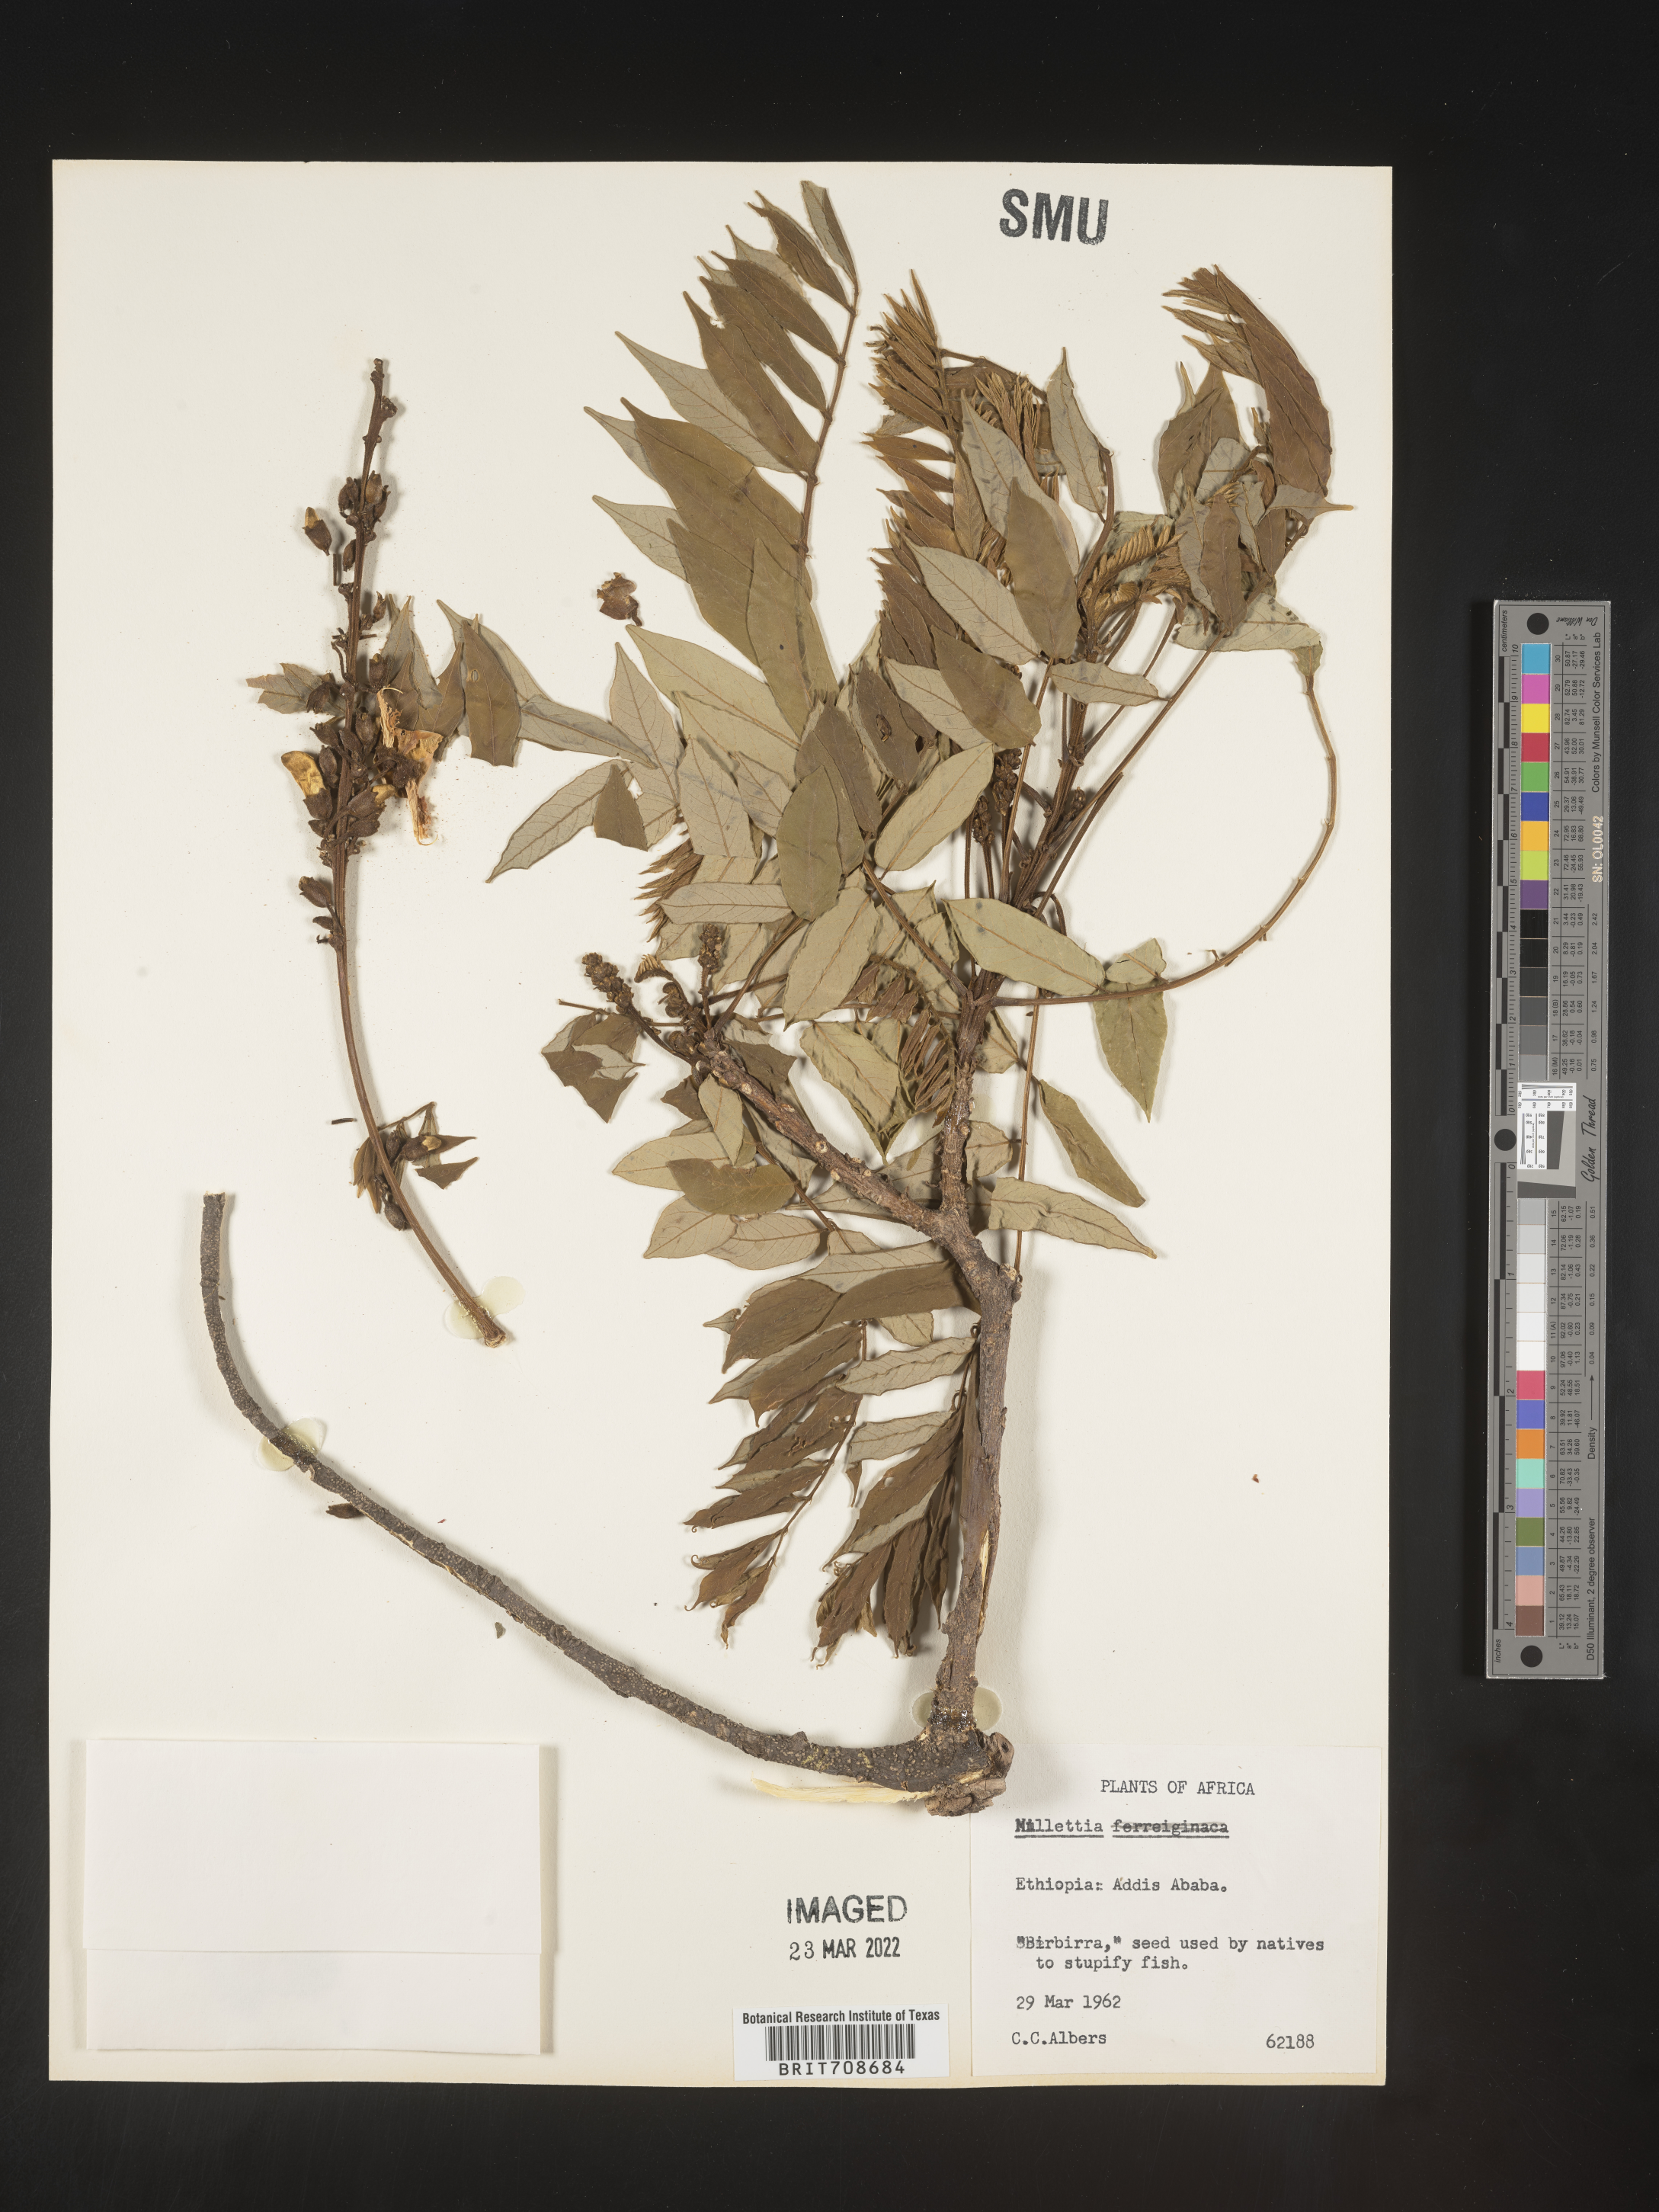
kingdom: Plantae
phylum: Tracheophyta
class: Magnoliopsida
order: Fabales
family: Fabaceae
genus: Millettia
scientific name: Millettia
